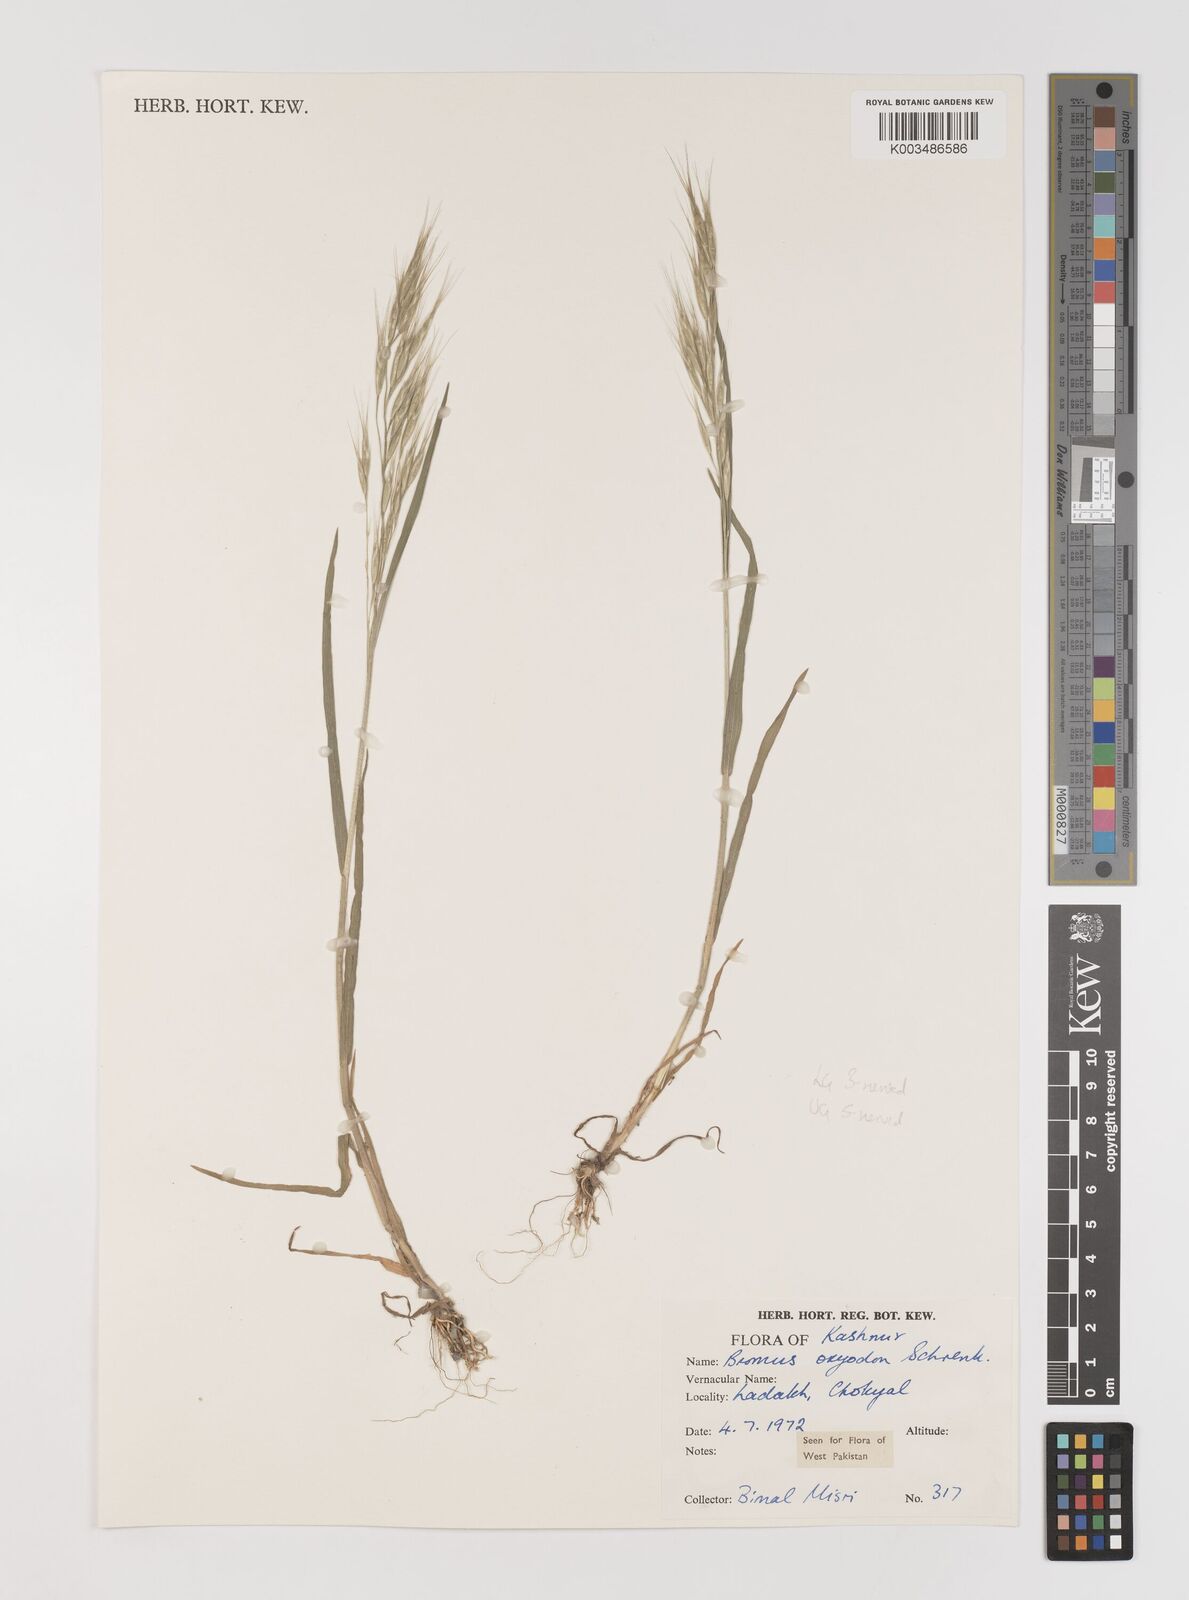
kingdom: Plantae
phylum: Tracheophyta
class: Liliopsida
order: Poales
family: Poaceae
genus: Bromus
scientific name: Bromus oxyodon
